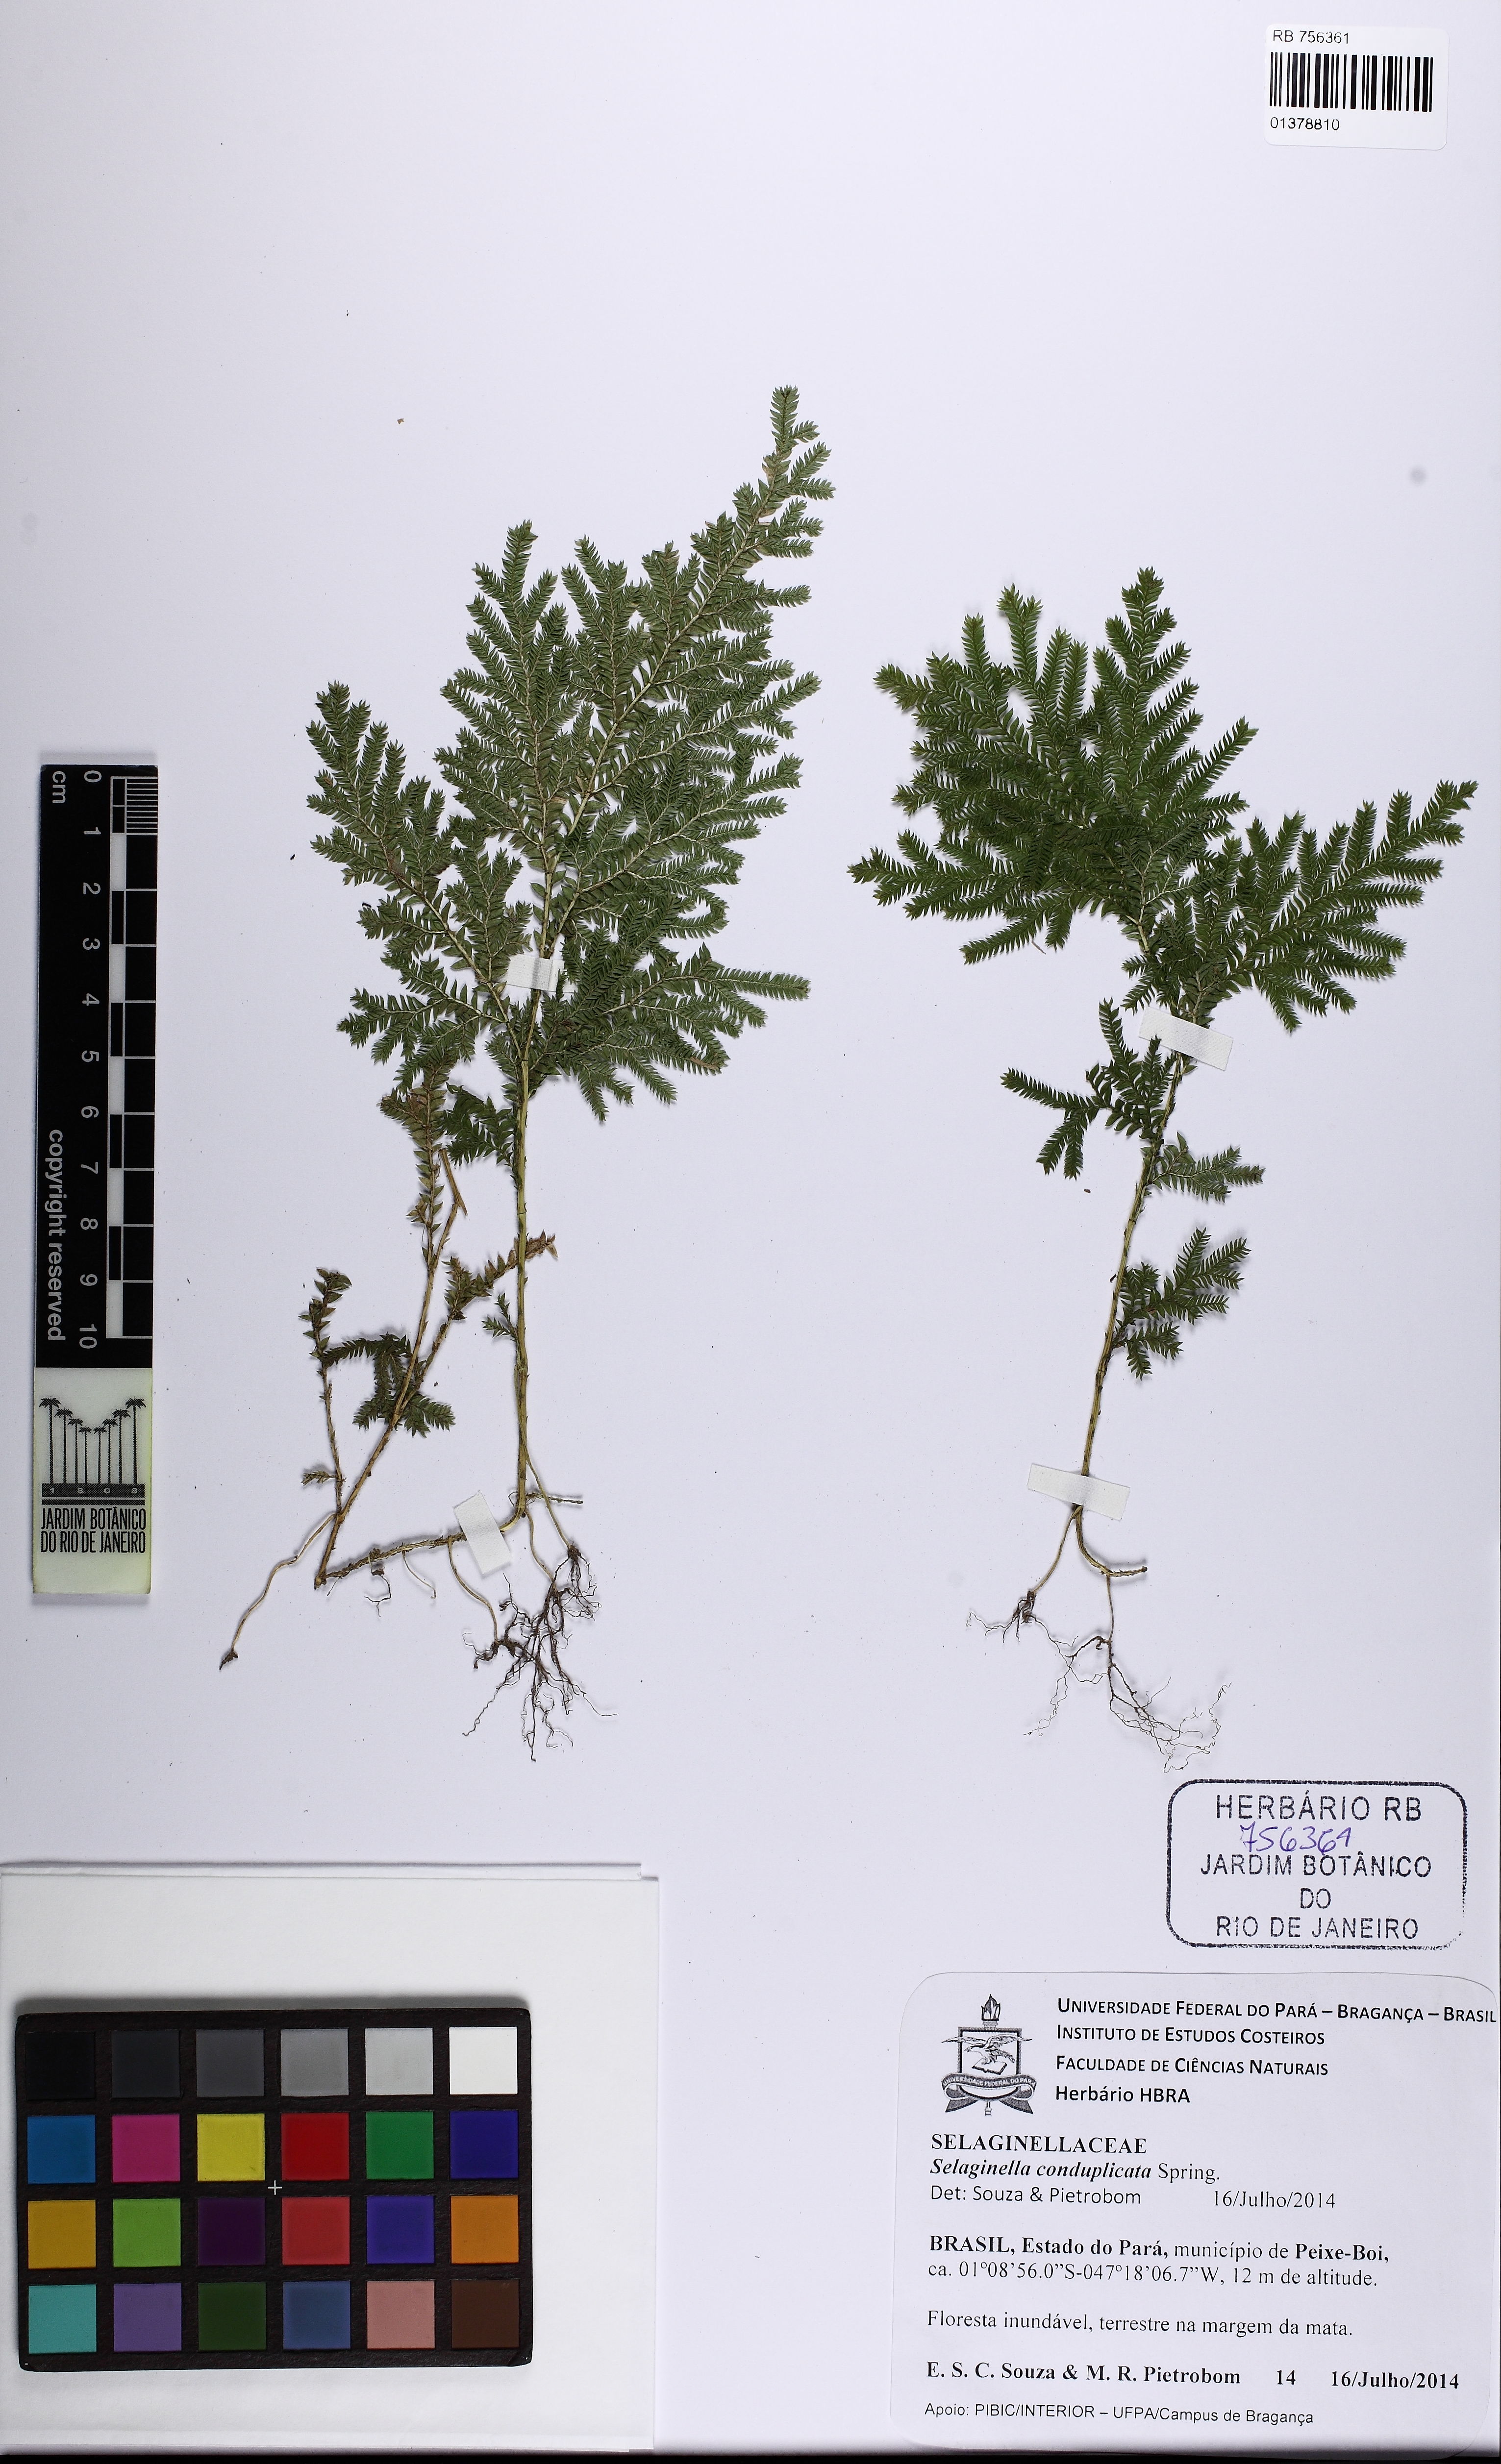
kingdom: Plantae
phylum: Tracheophyta
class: Lycopodiopsida
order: Selaginellales
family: Selaginellaceae
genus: Selaginella
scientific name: Selaginella conduplicata
